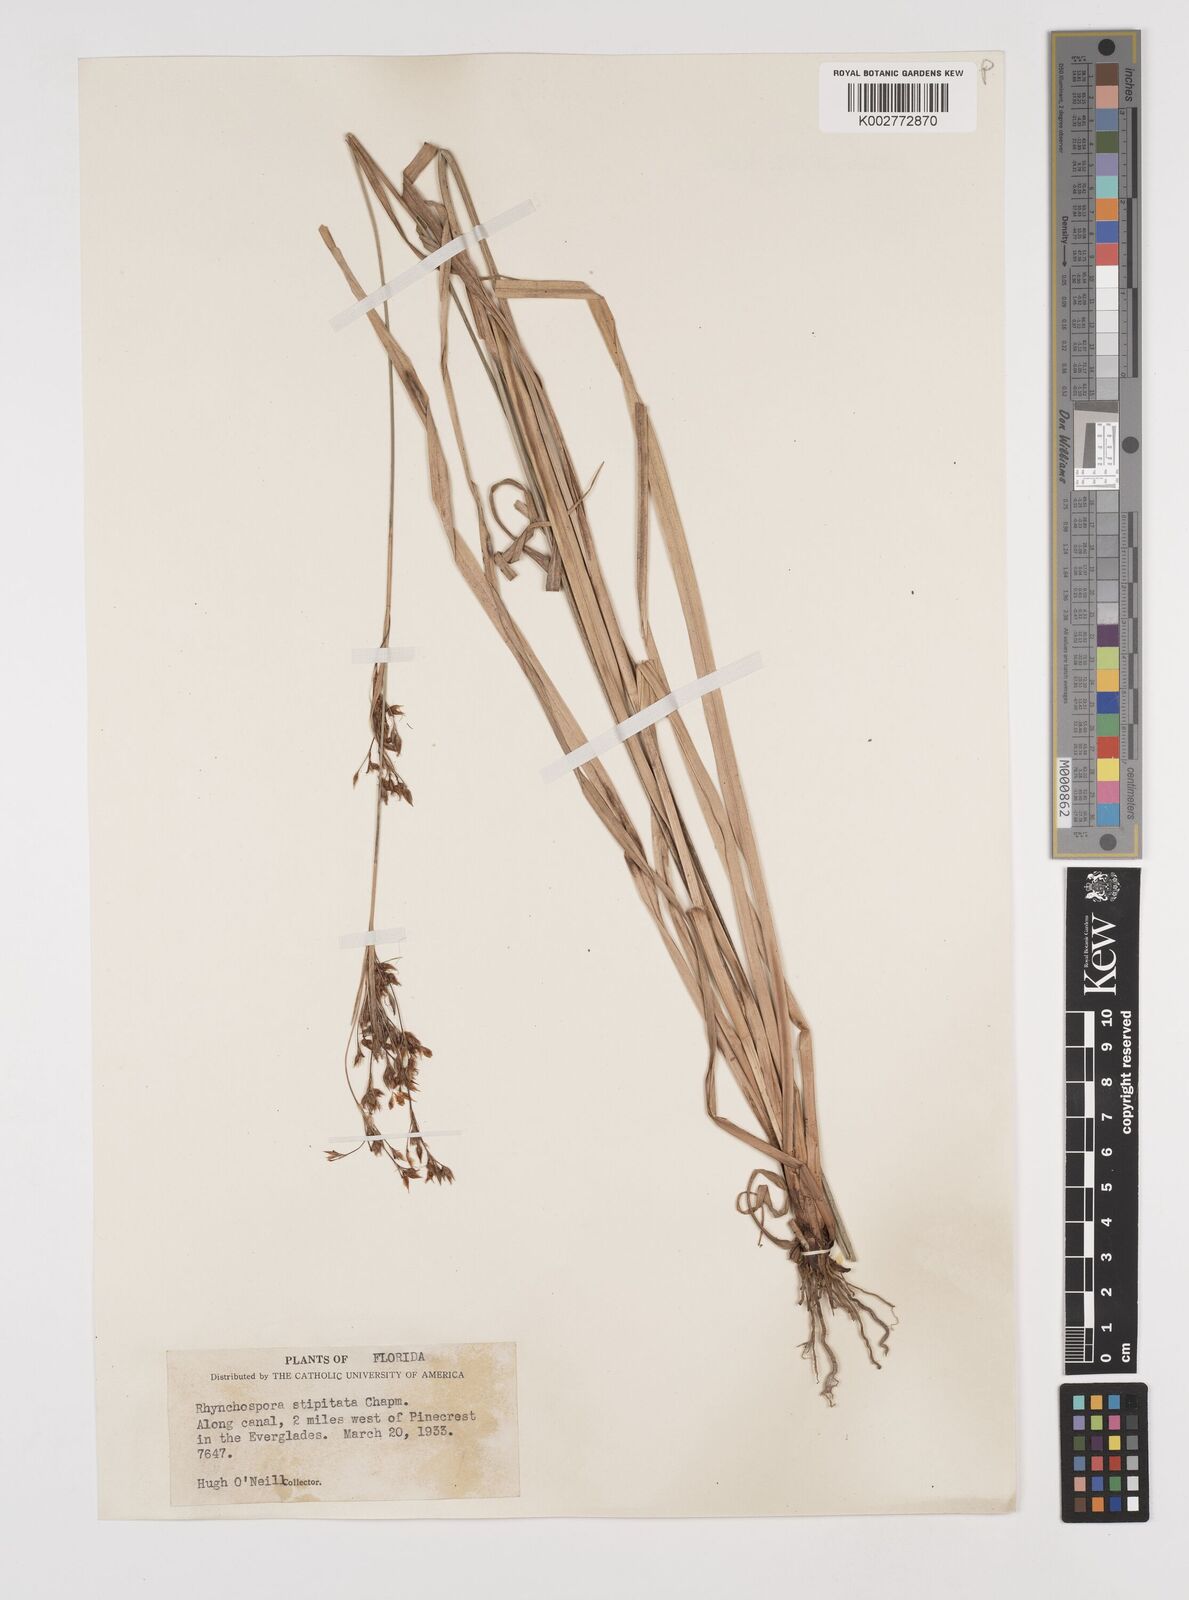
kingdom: Plantae
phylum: Tracheophyta
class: Liliopsida
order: Poales
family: Cyperaceae
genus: Rhynchospora
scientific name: Rhynchospora odorata
